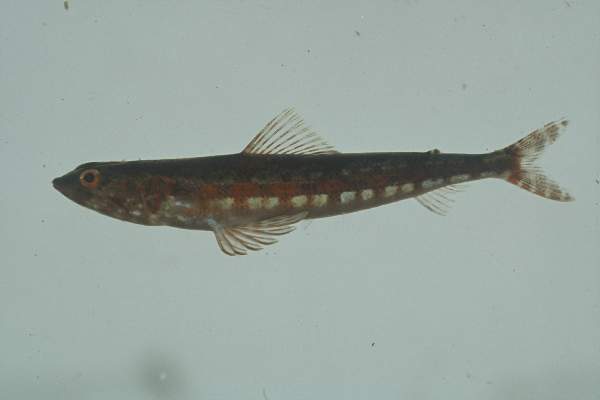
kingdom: Animalia
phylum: Chordata
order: Aulopiformes
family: Synodontidae
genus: Synodus
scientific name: Synodus variegatus
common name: Variegated lizardfish
